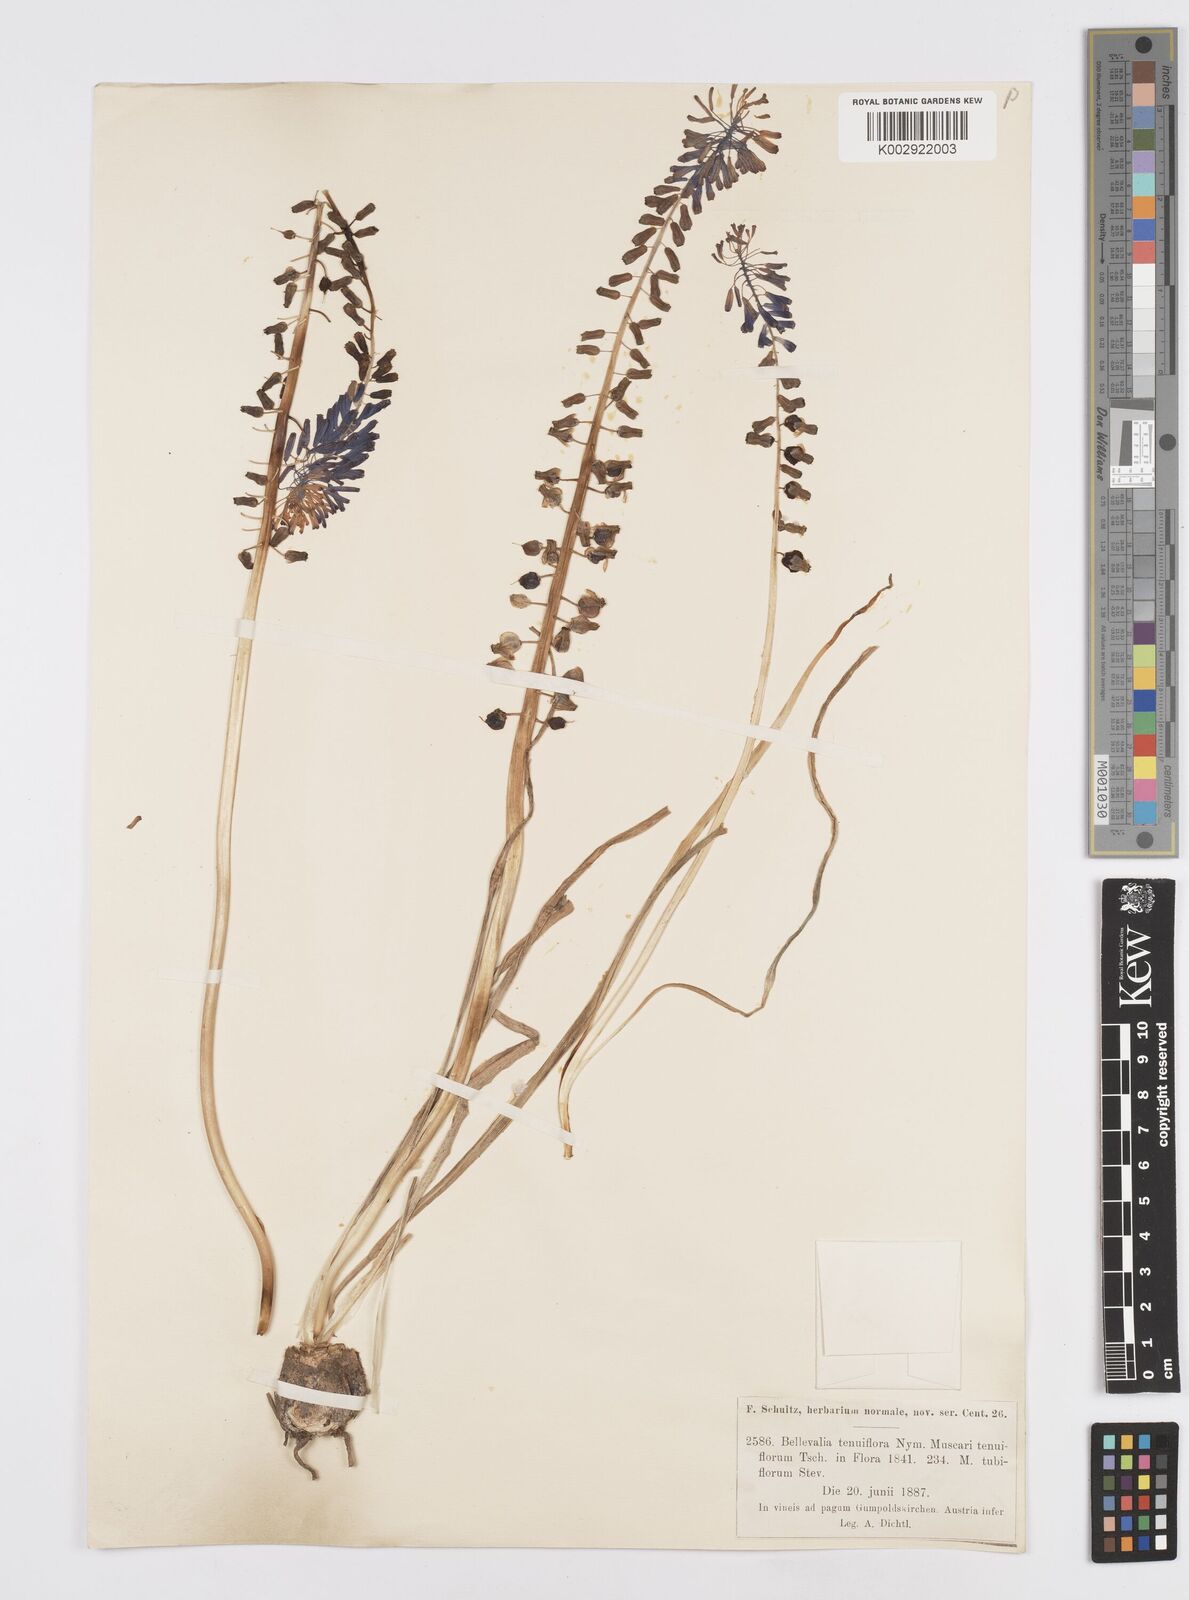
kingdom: Plantae
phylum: Tracheophyta
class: Liliopsida
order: Asparagales
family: Asparagaceae
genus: Muscari
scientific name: Muscari tenuiflorum
